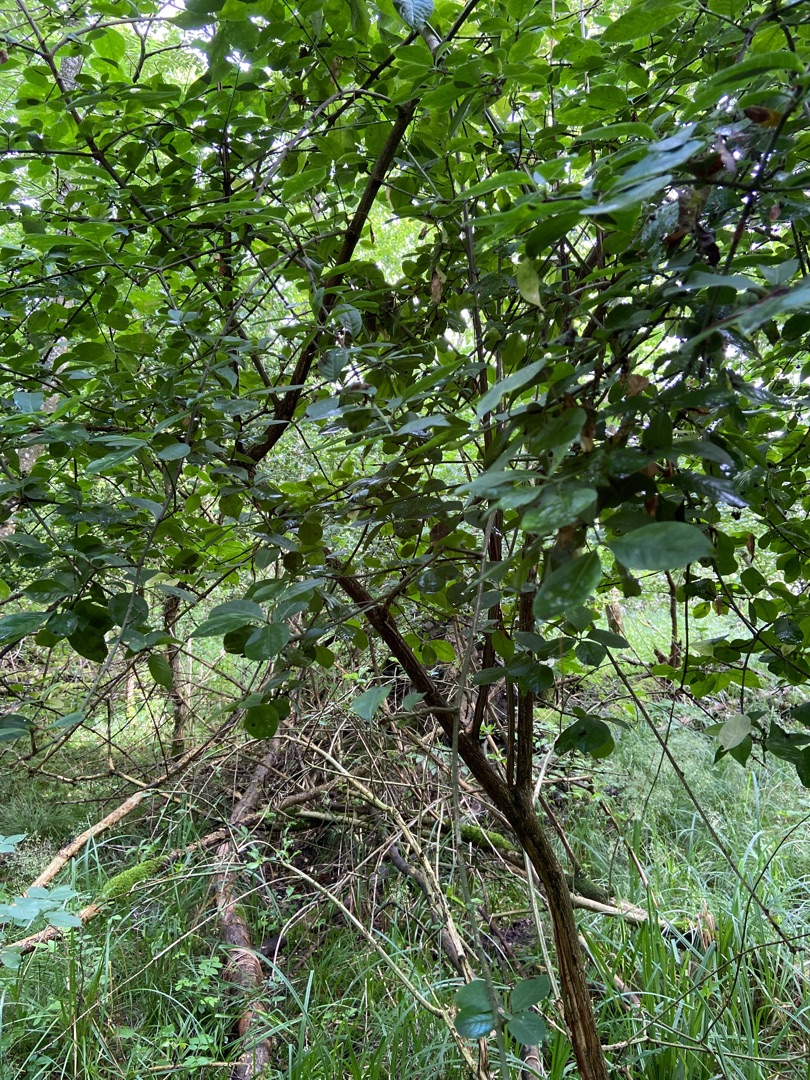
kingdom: Plantae
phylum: Tracheophyta
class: Magnoliopsida
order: Celastrales
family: Celastraceae
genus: Euonymus
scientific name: Euonymus europaeus
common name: Benved
